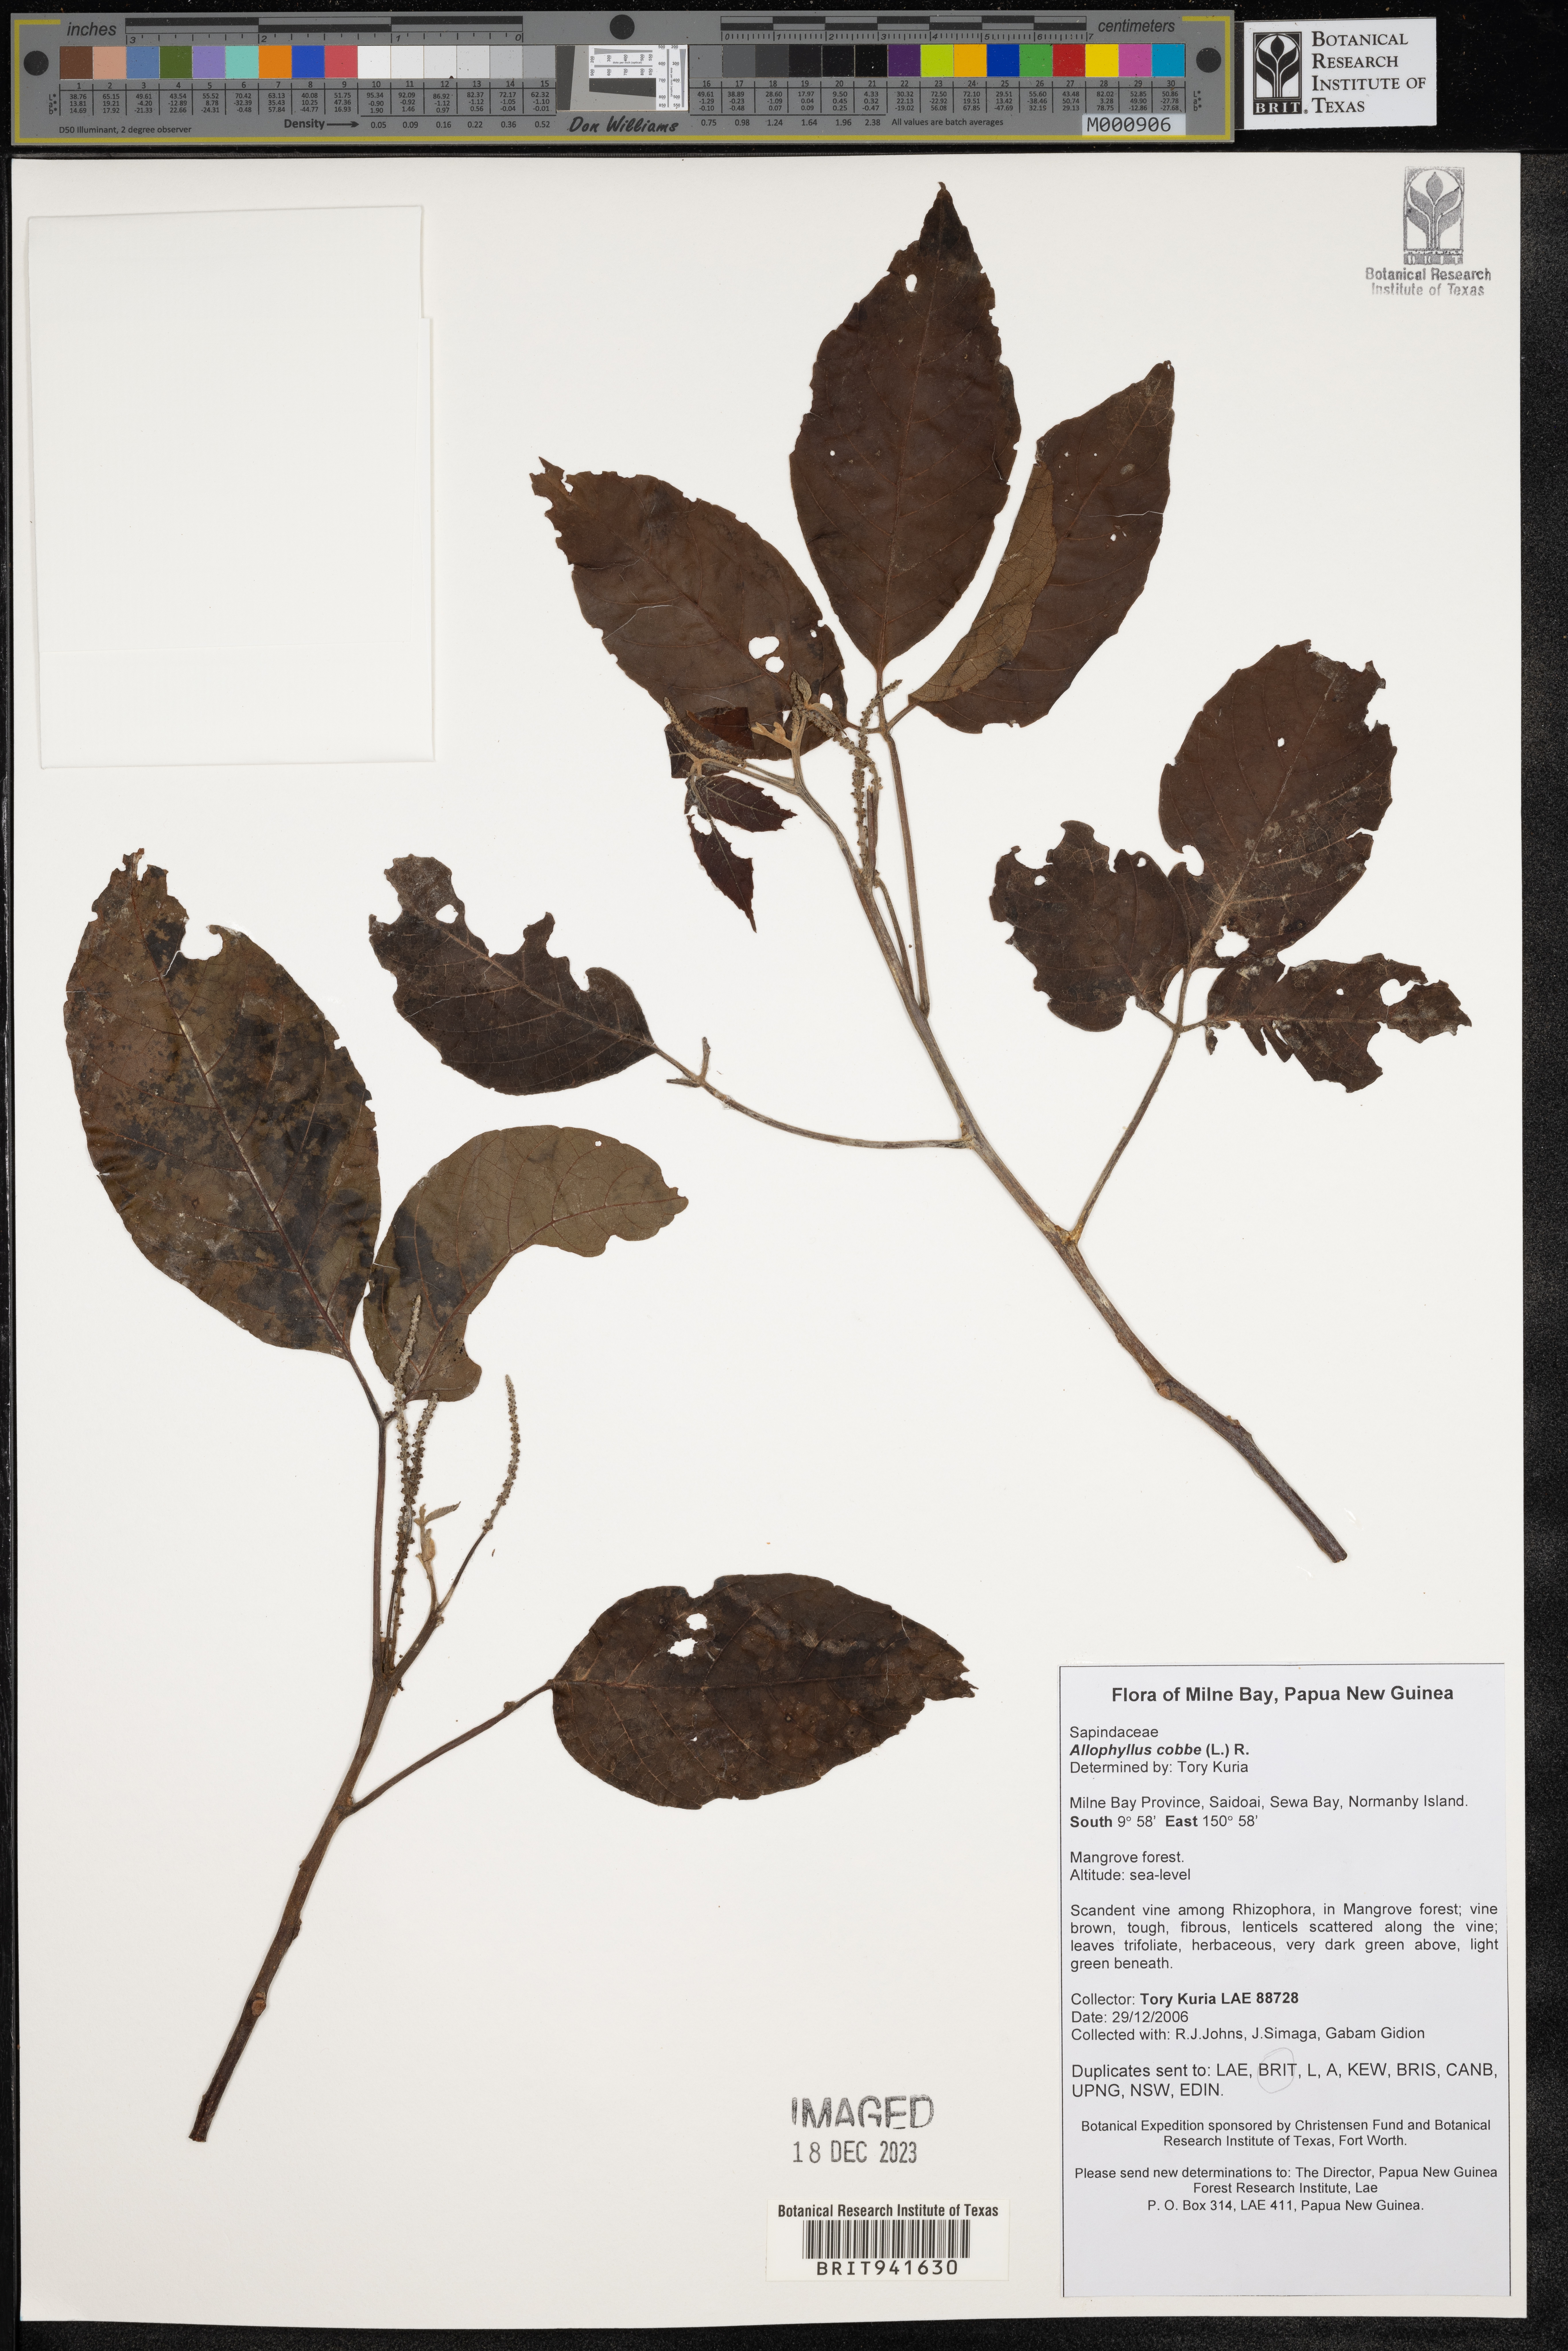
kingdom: Plantae
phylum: Tracheophyta
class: Magnoliopsida
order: Ericales
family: Polemoniaceae
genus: Allophyllum
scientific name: Allophyllum
